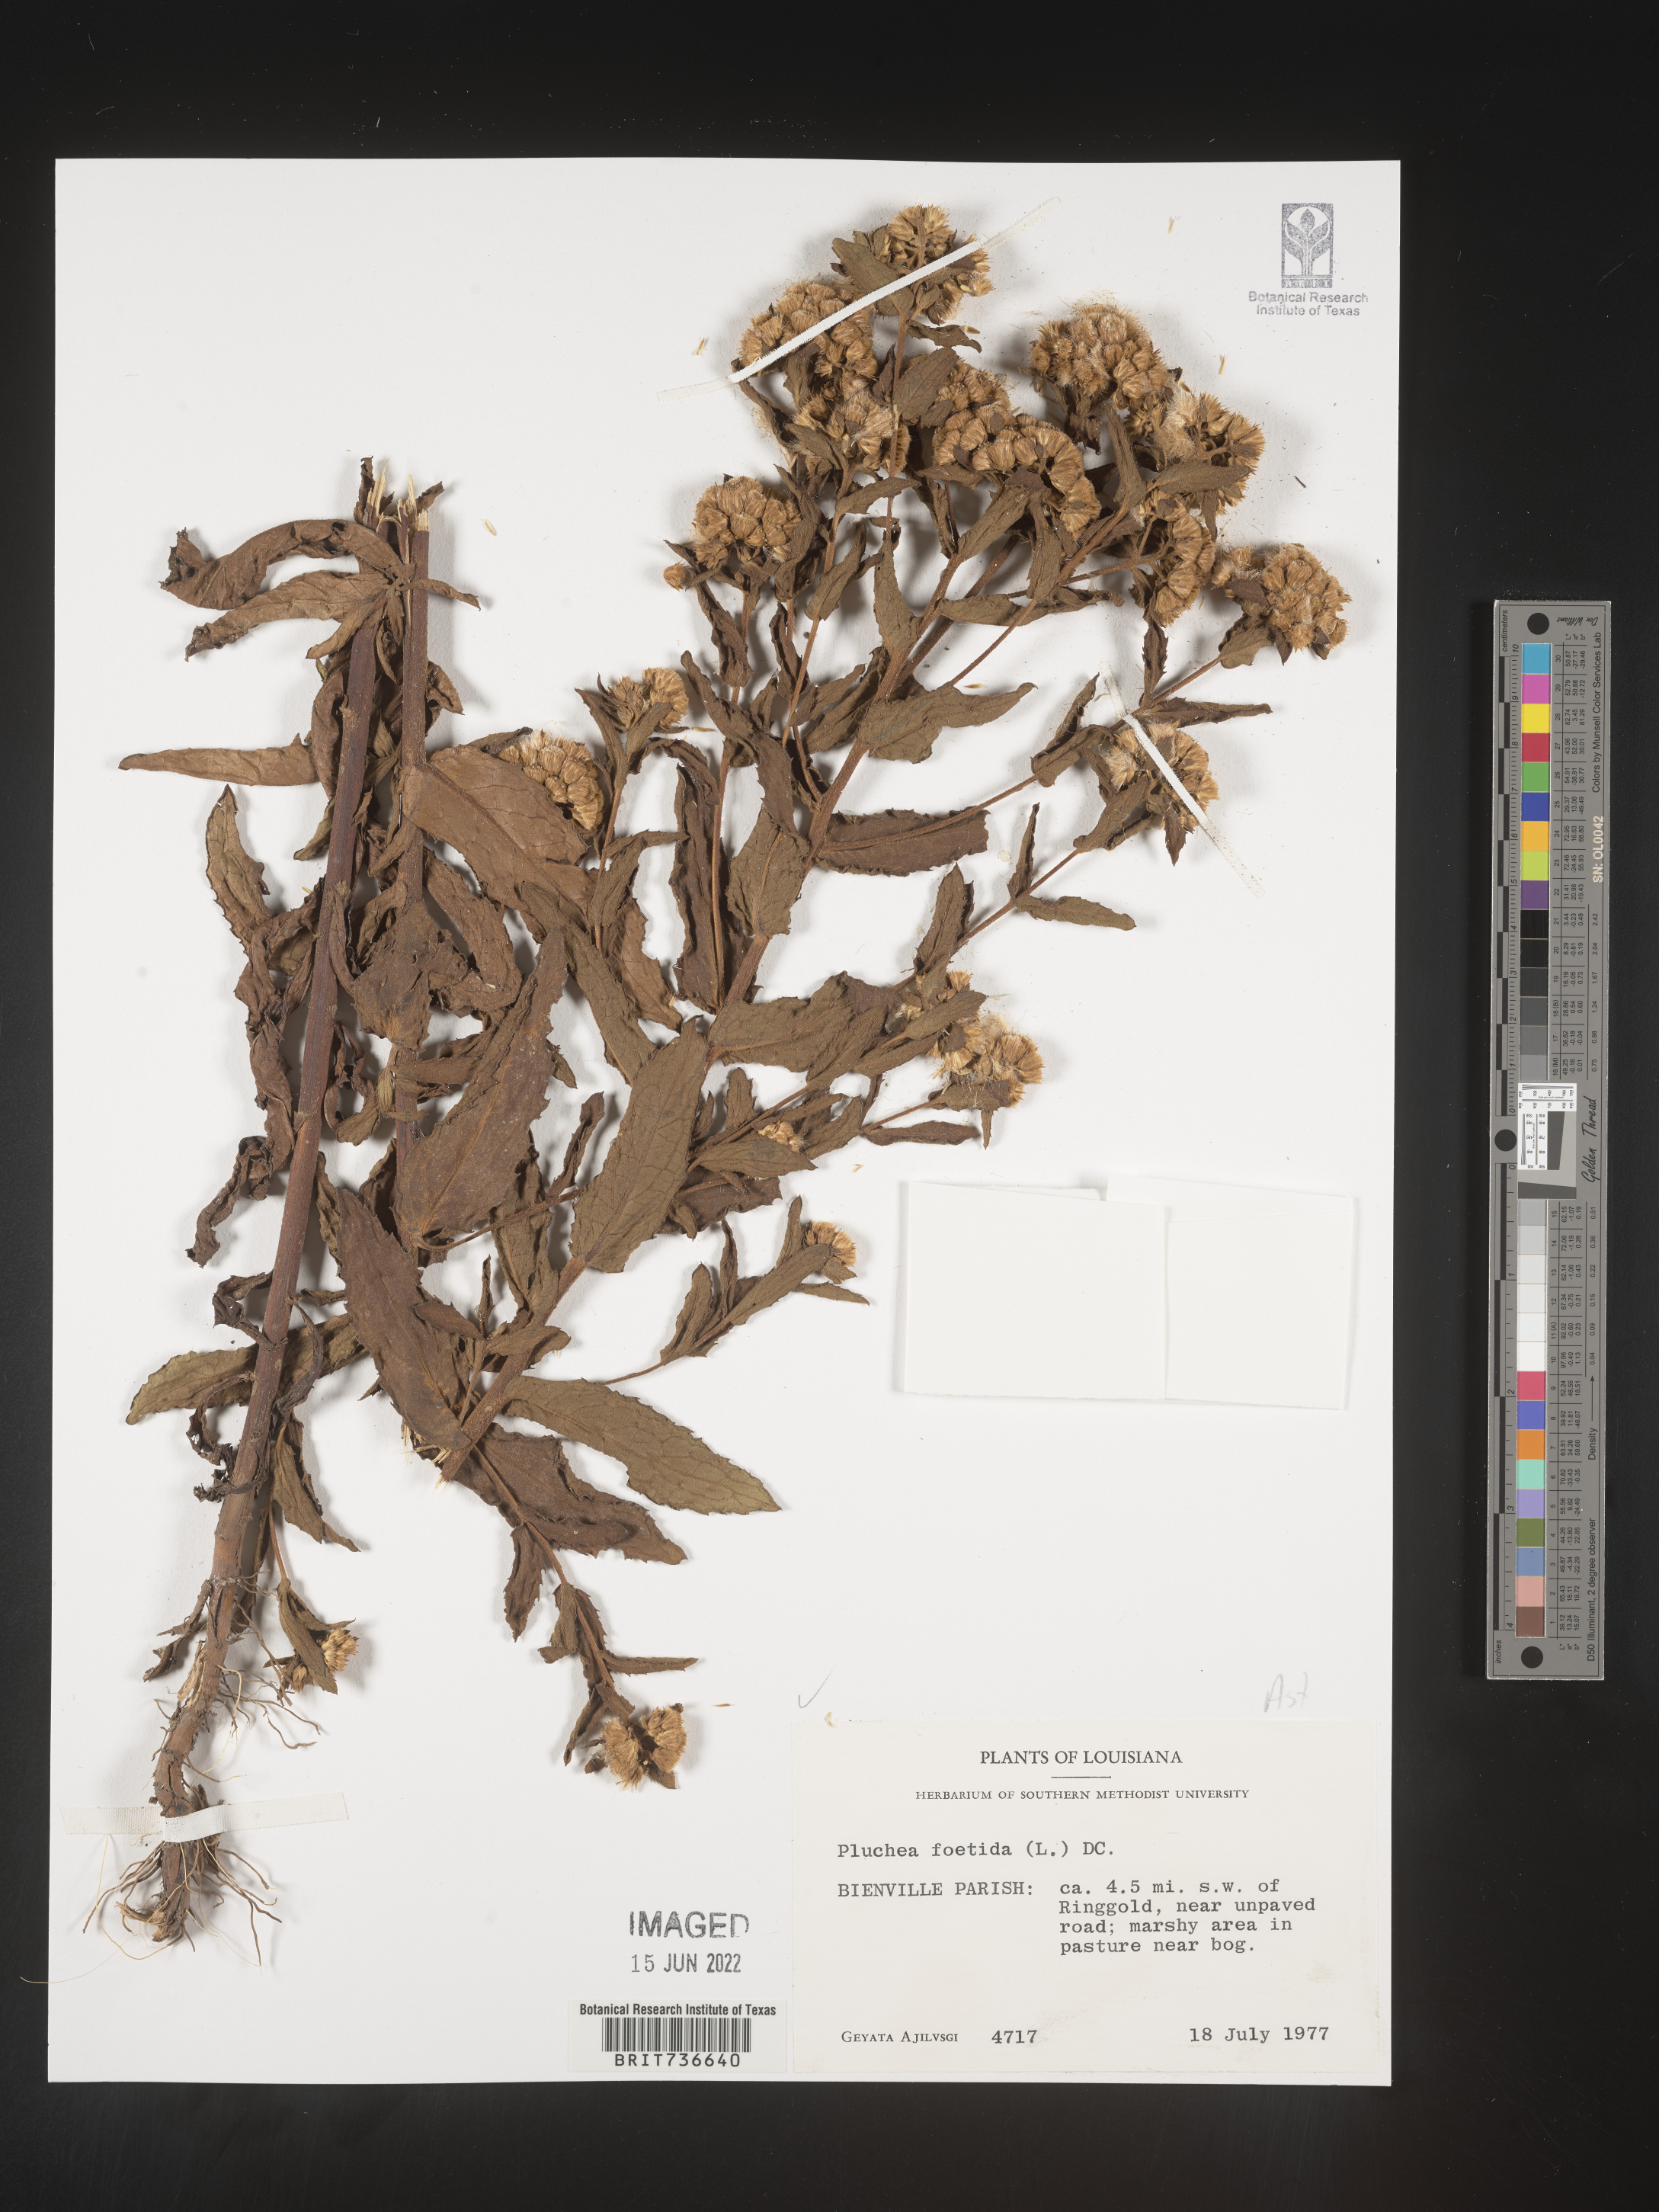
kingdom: Plantae
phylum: Tracheophyta
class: Magnoliopsida
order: Asterales
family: Asteraceae
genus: Pluchea
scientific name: Pluchea foetida
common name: Stinking camphorweed
